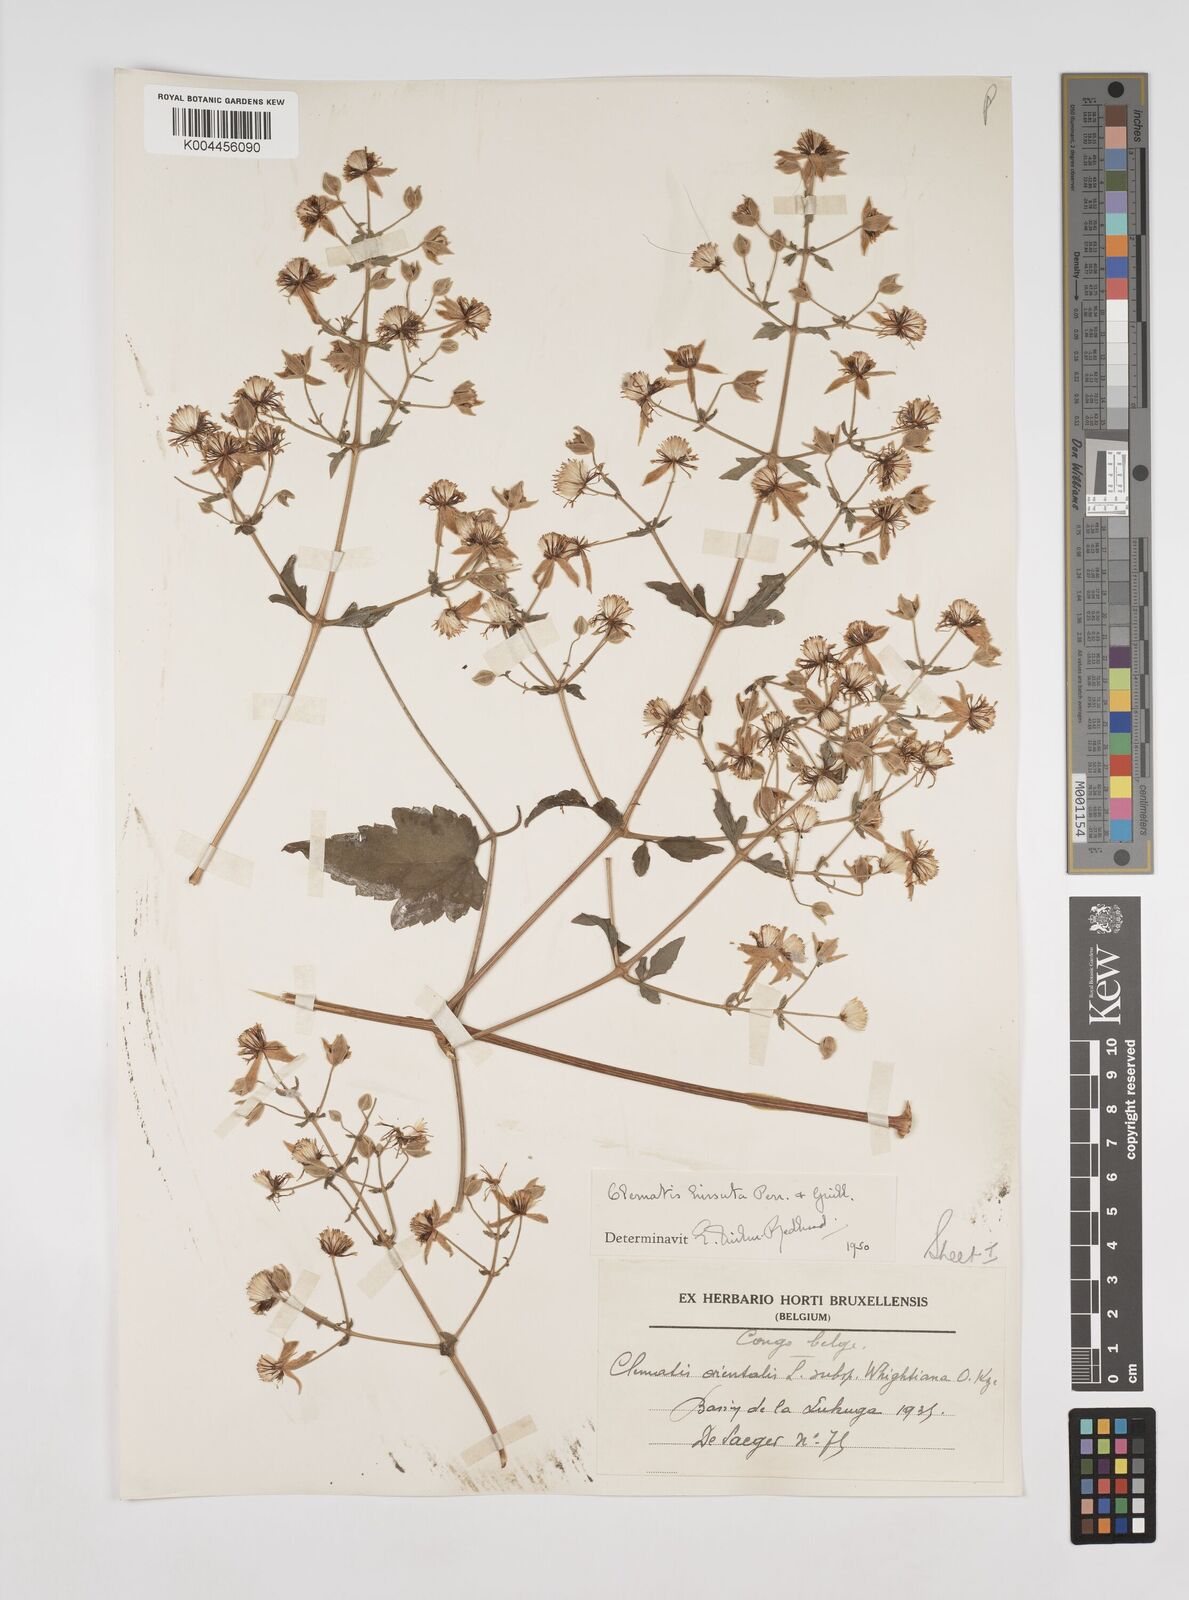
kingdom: Plantae
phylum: Tracheophyta
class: Magnoliopsida
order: Ranunculales
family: Ranunculaceae
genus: Clematis
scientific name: Clematis orientalis
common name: Oriental virgin's-bower
